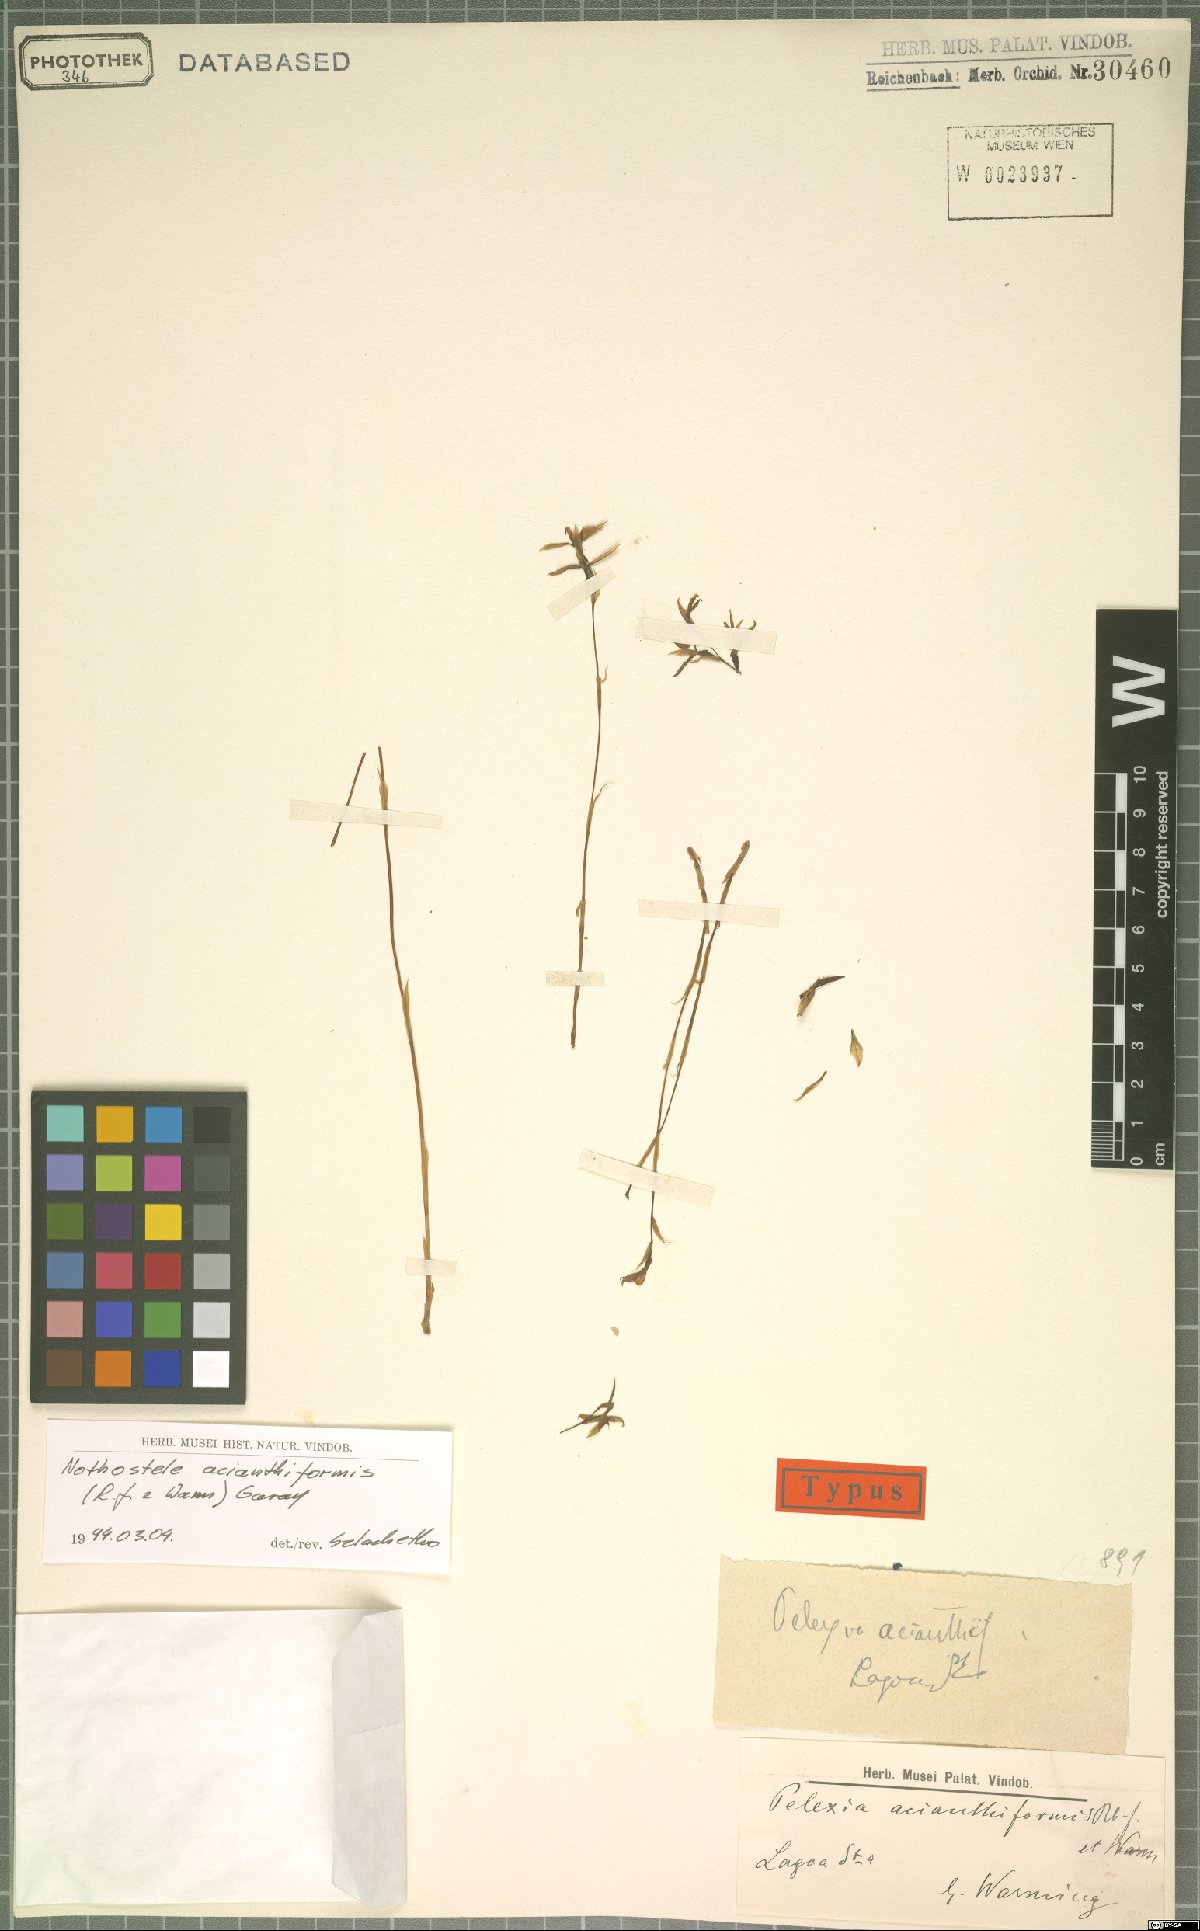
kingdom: Plantae
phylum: Tracheophyta
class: Liliopsida
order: Asparagales
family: Orchidaceae
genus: Nothostele
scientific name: Nothostele acianthiformis
